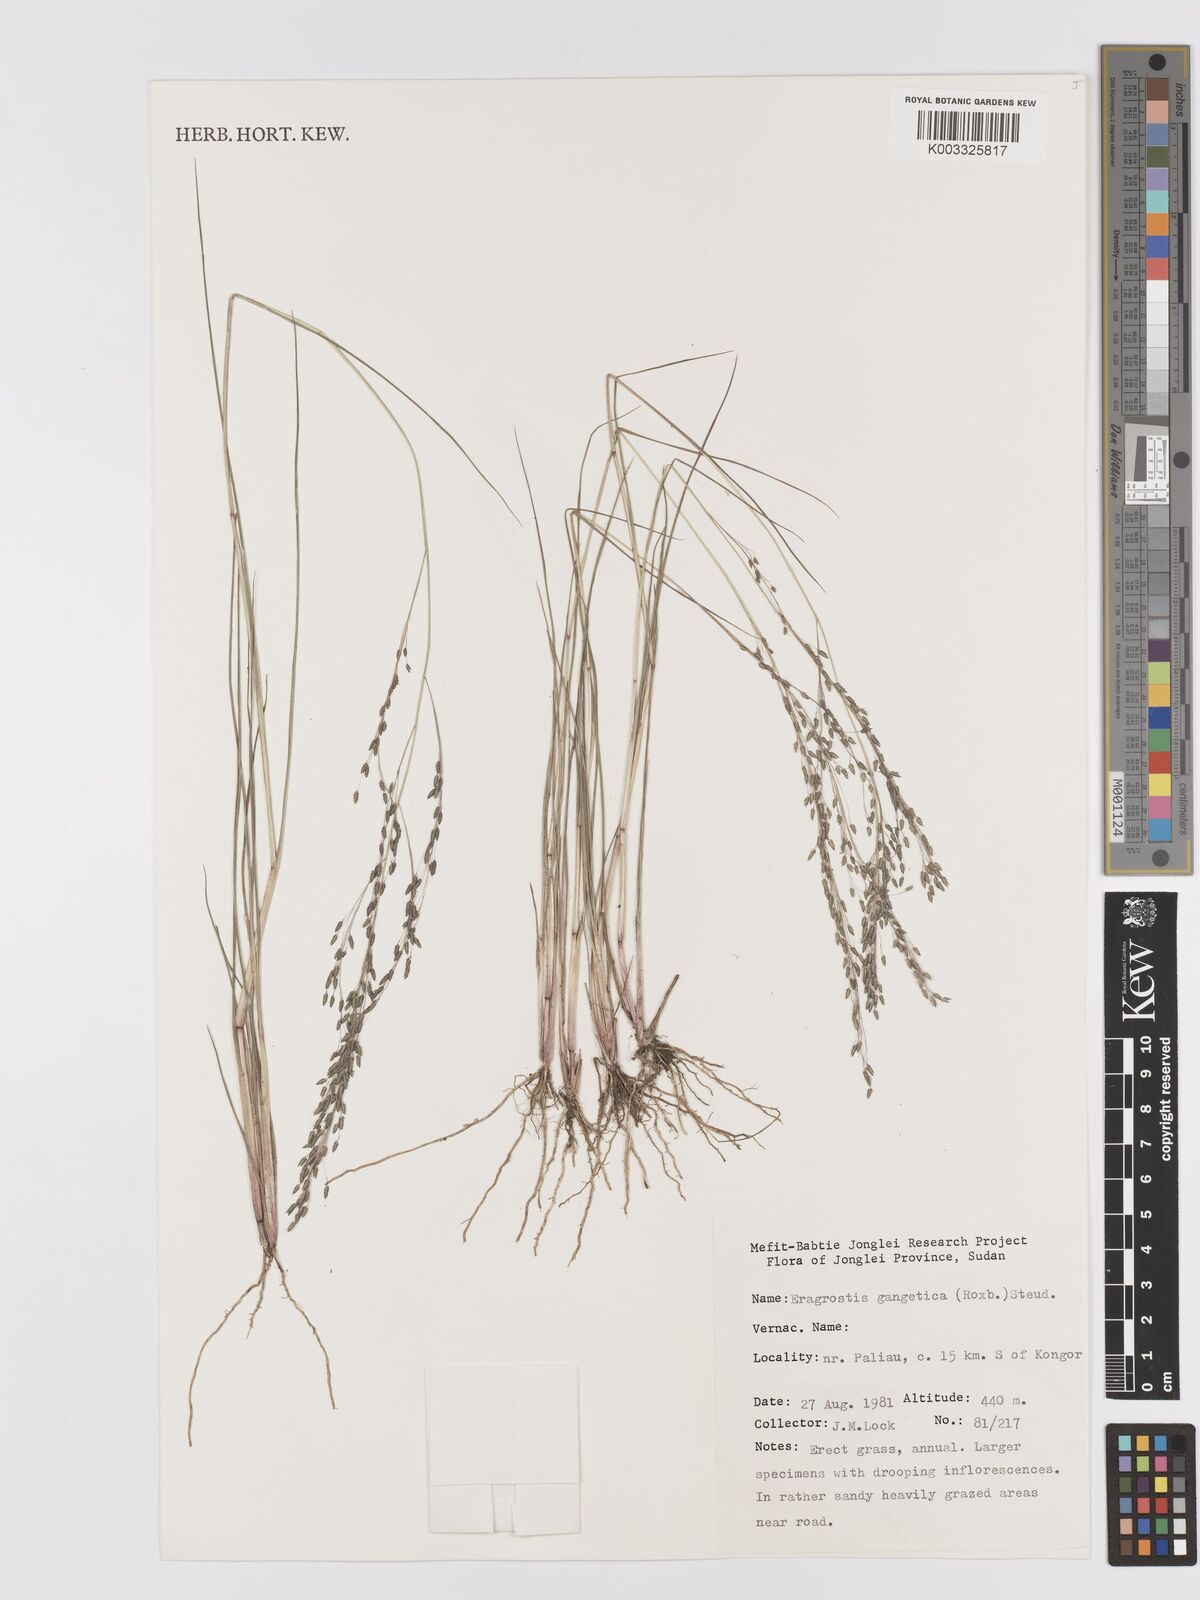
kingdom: Plantae
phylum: Tracheophyta
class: Liliopsida
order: Poales
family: Poaceae
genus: Eragrostis
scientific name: Eragrostis gangetica
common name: Slimflower lovegrass
